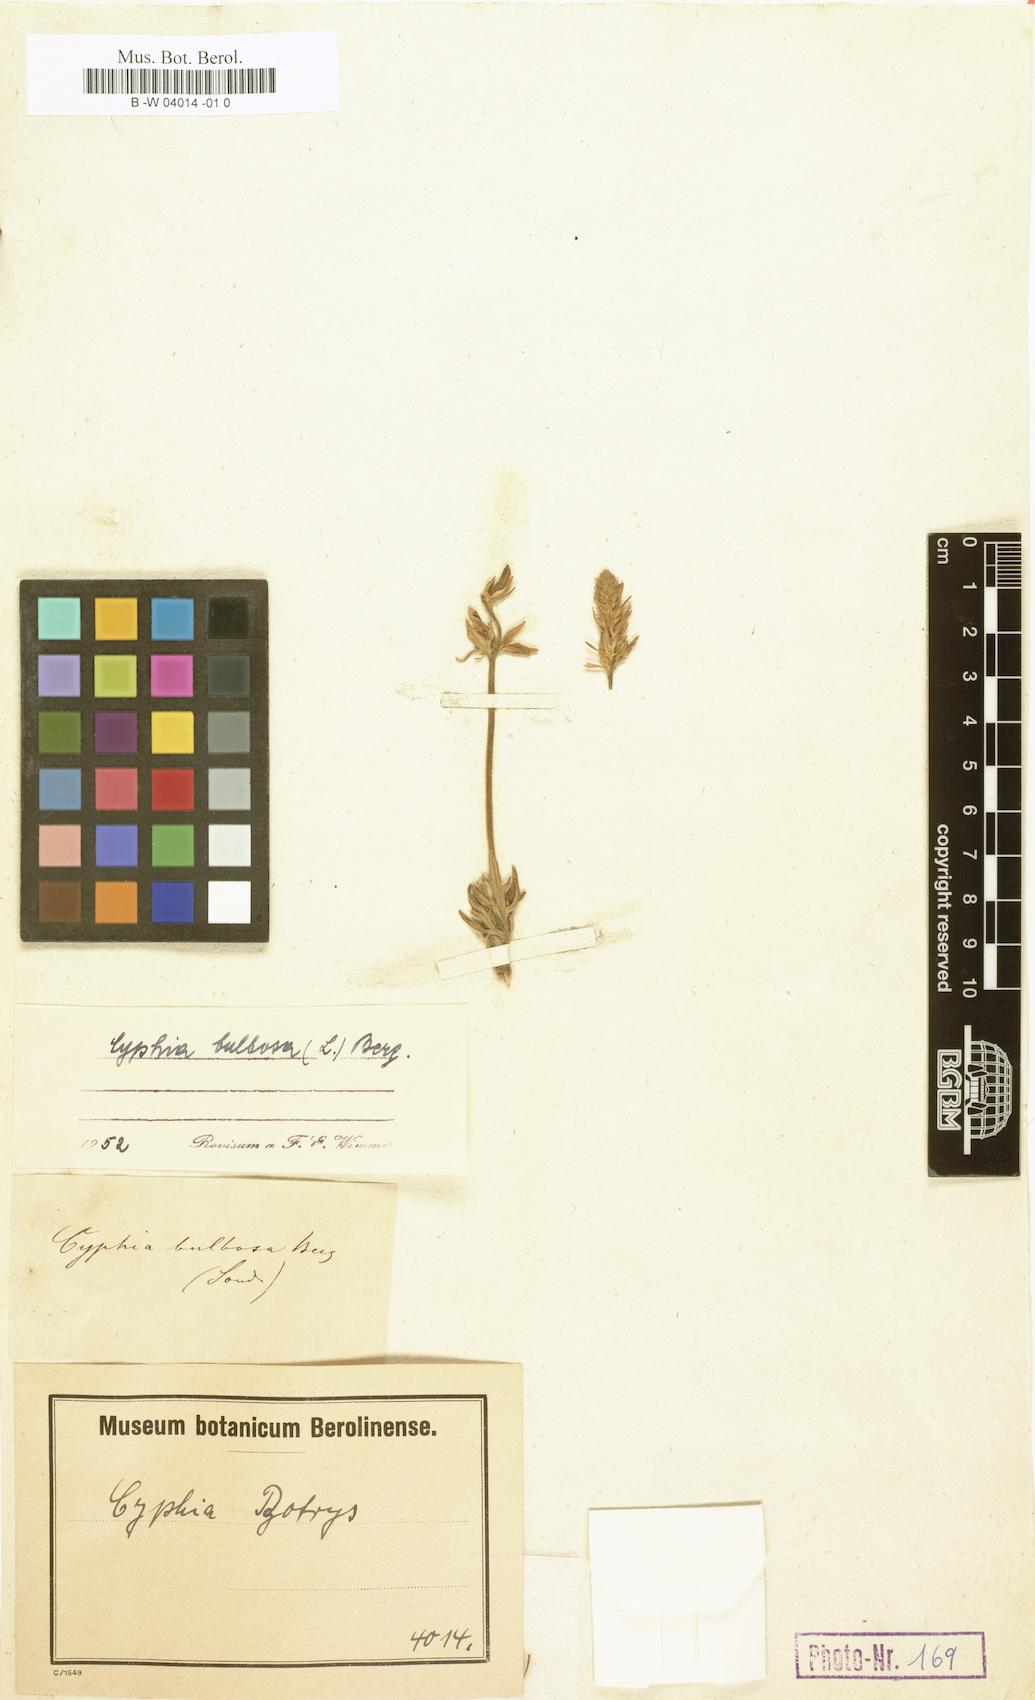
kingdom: Plantae
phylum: Tracheophyta
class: Magnoliopsida
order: Asterales
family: Campanulaceae
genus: Cyphia
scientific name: Cyphia bulbosa
